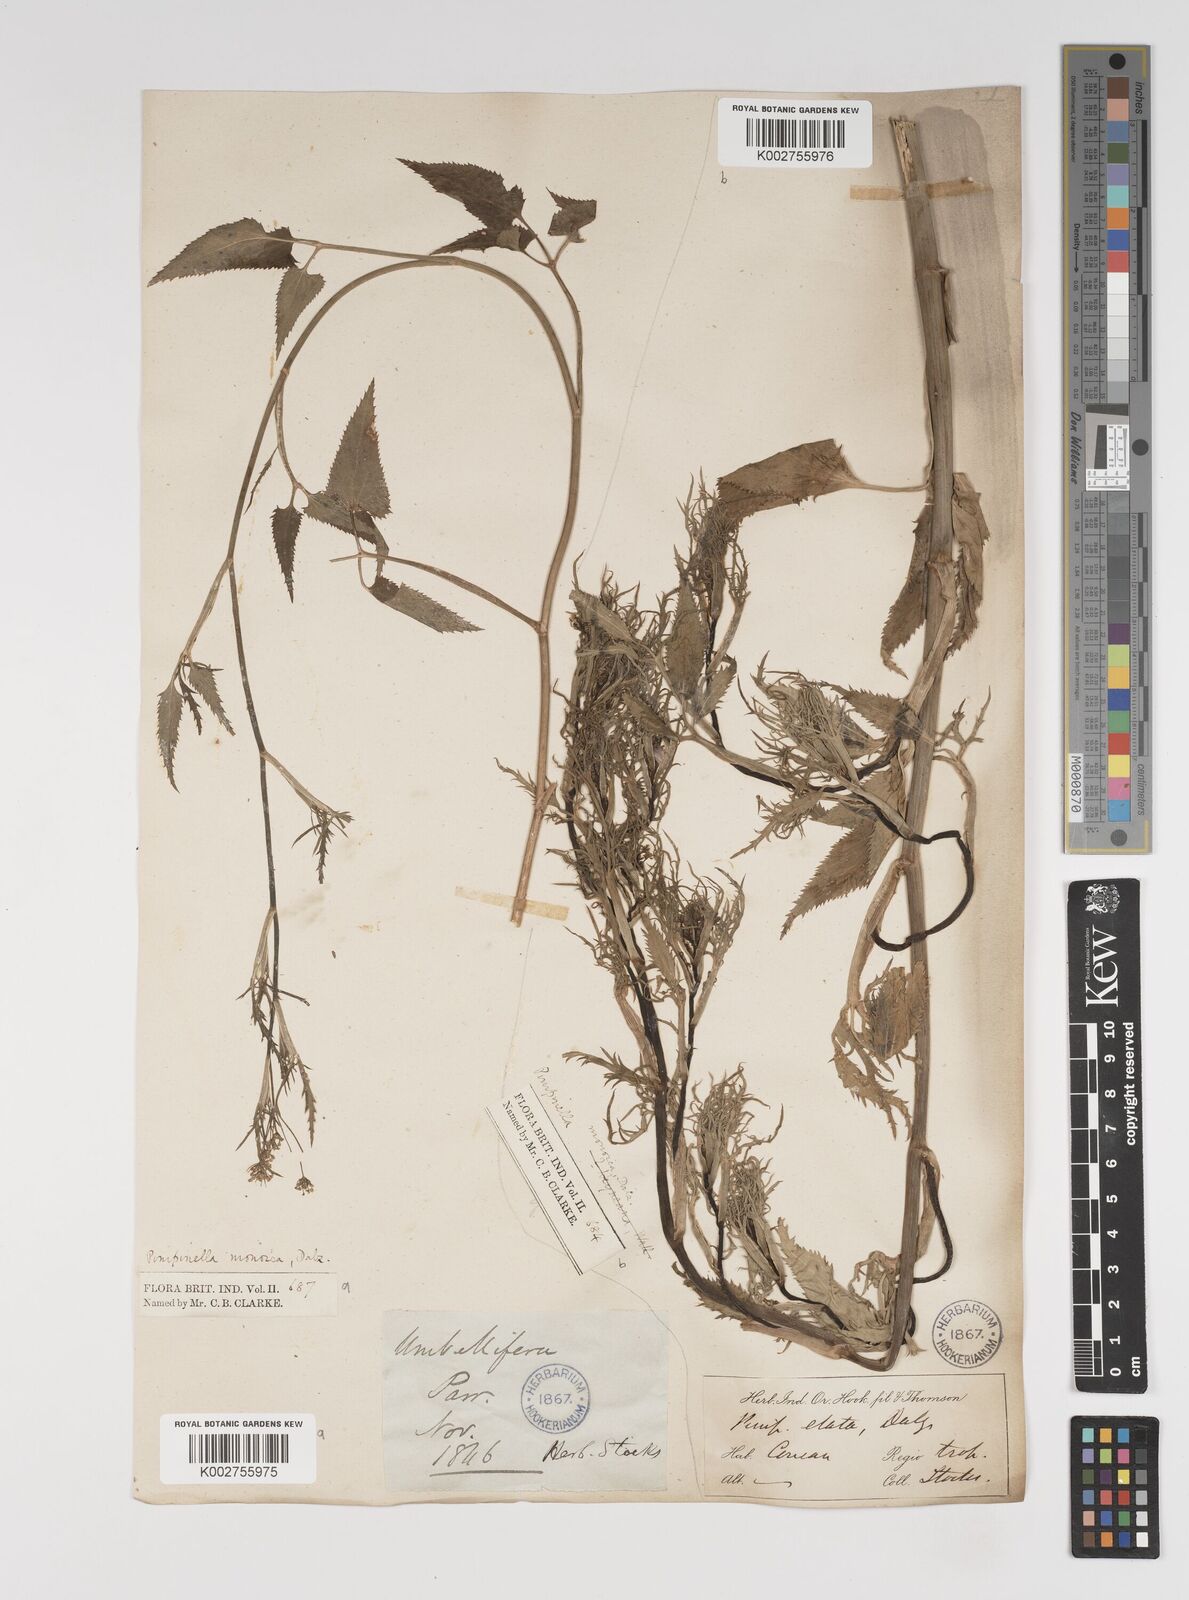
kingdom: Plantae
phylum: Tracheophyta
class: Magnoliopsida
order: Apiales
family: Apiaceae
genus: Pimpinella
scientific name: Pimpinella wallichiana
